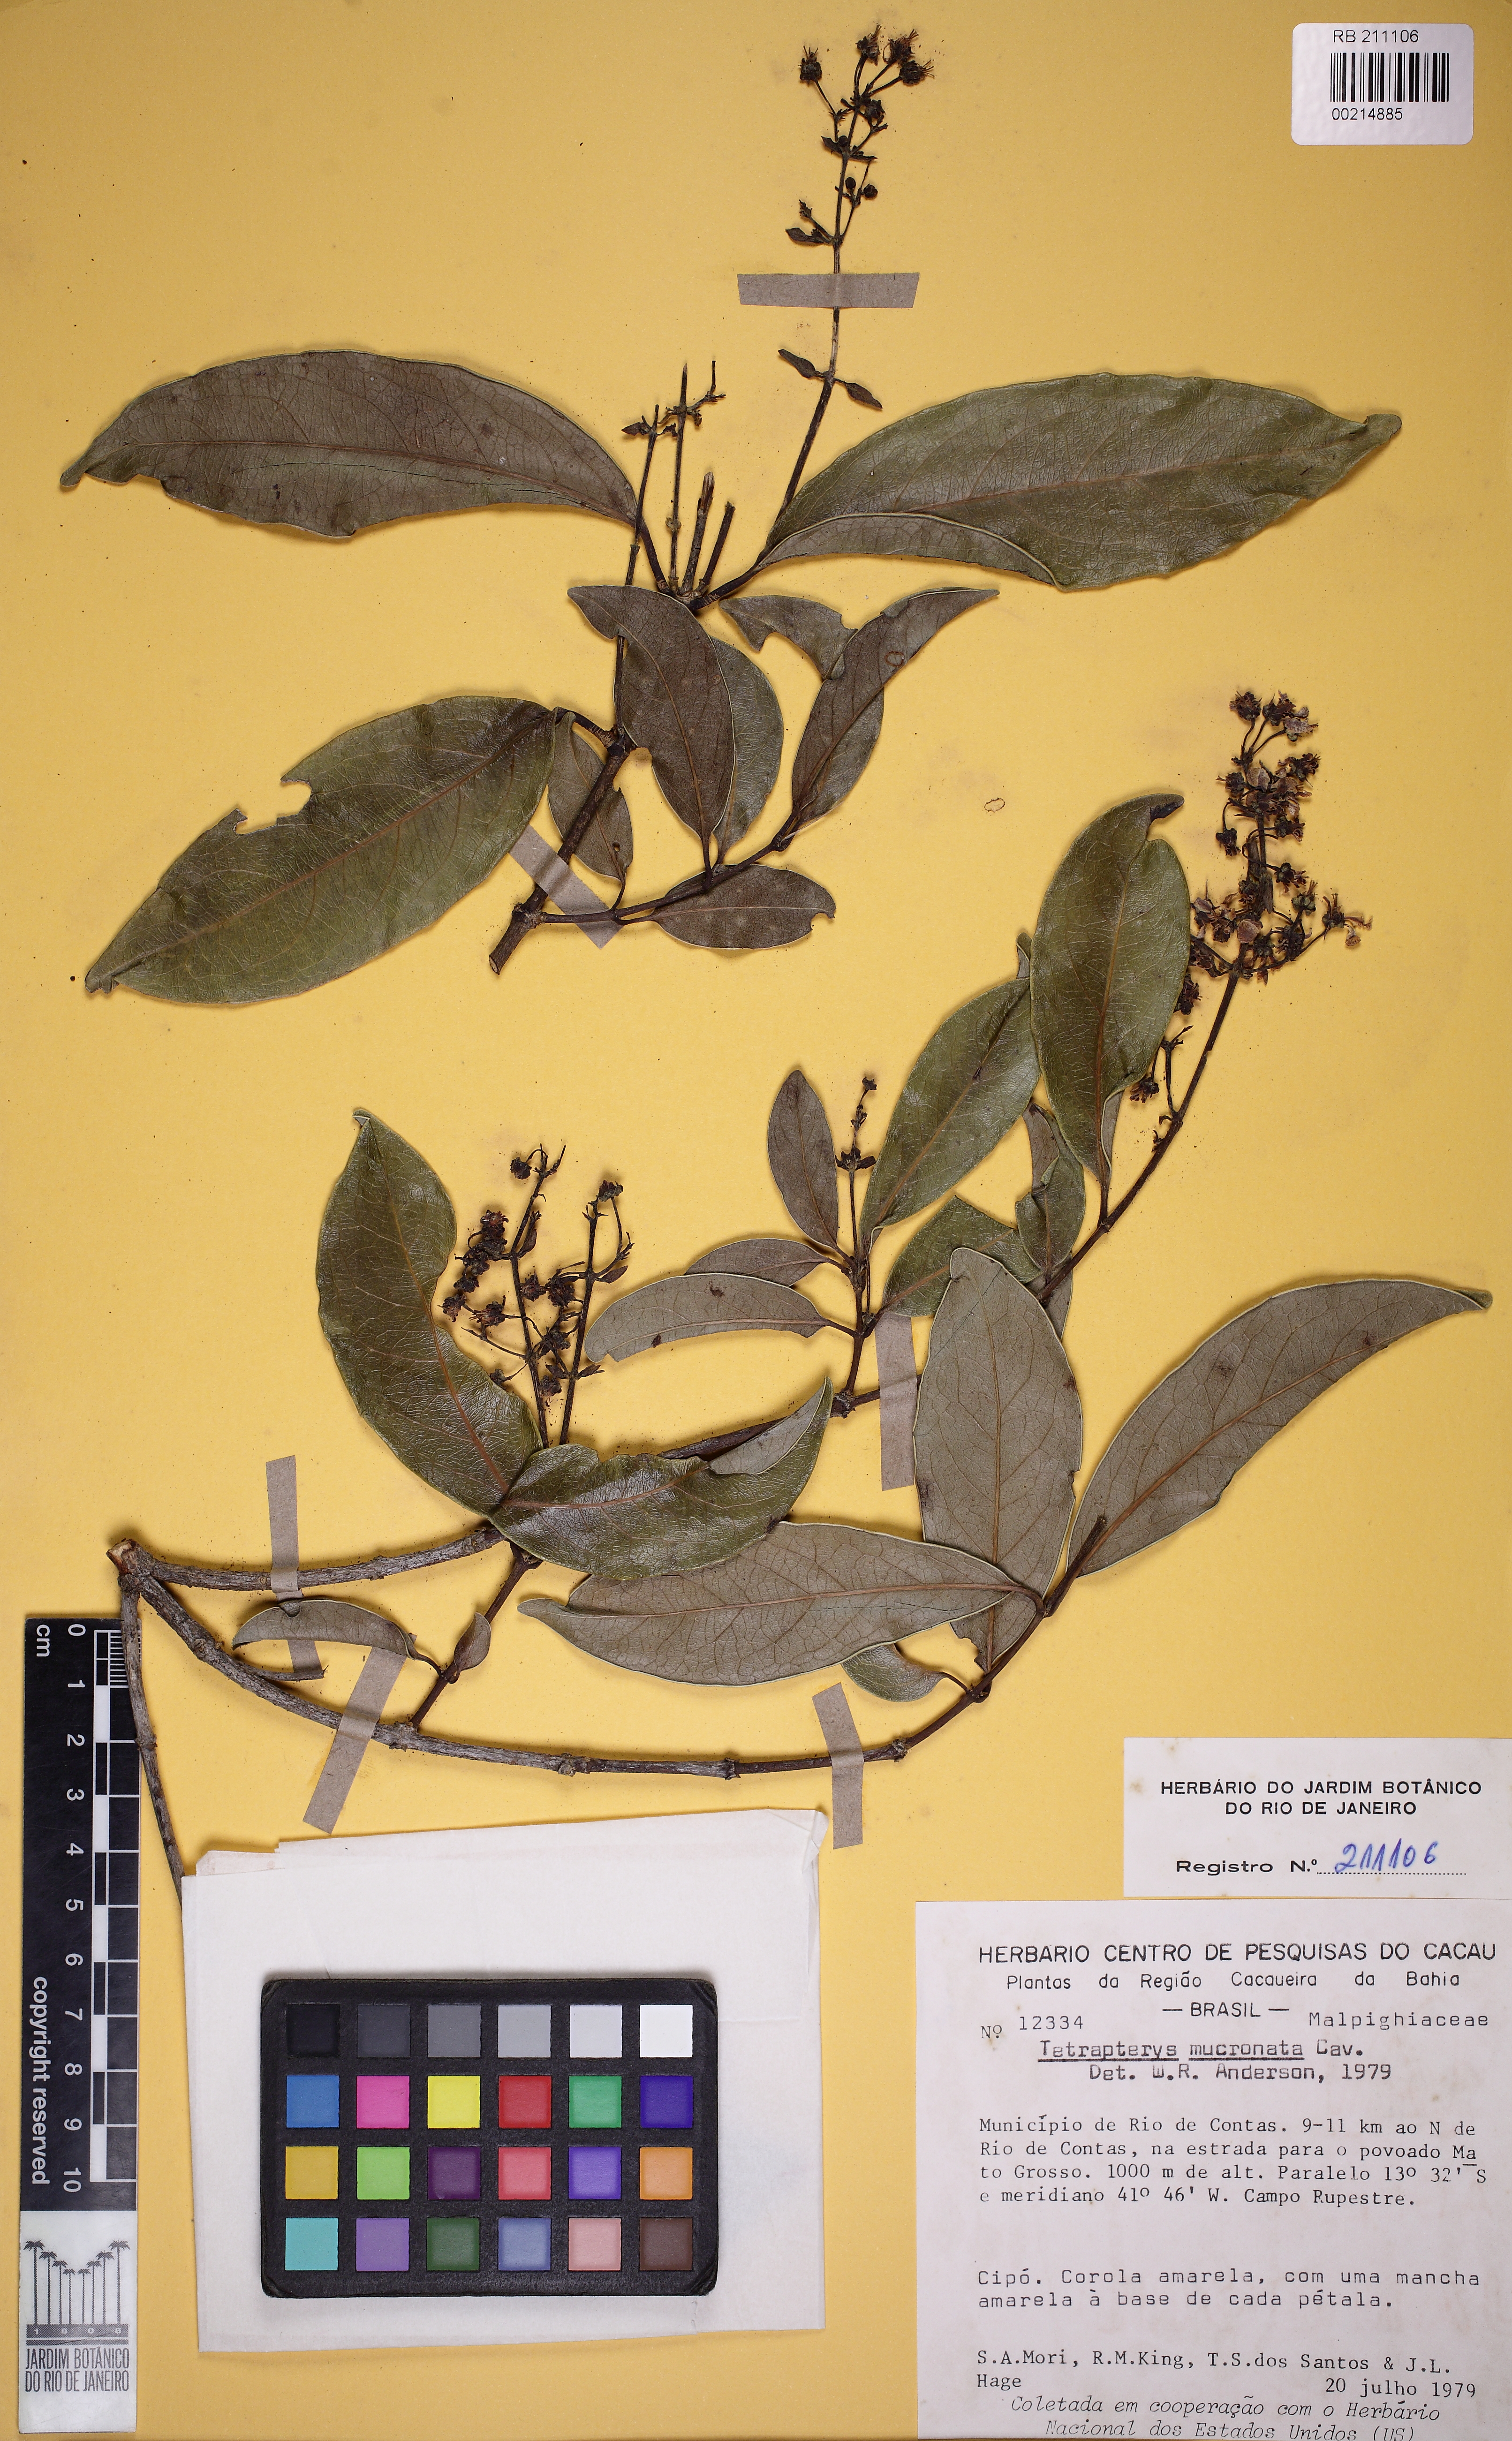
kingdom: Plantae
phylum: Tracheophyta
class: Magnoliopsida
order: Malpighiales
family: Malpighiaceae
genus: Tetrapterys
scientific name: Tetrapterys mucronata
